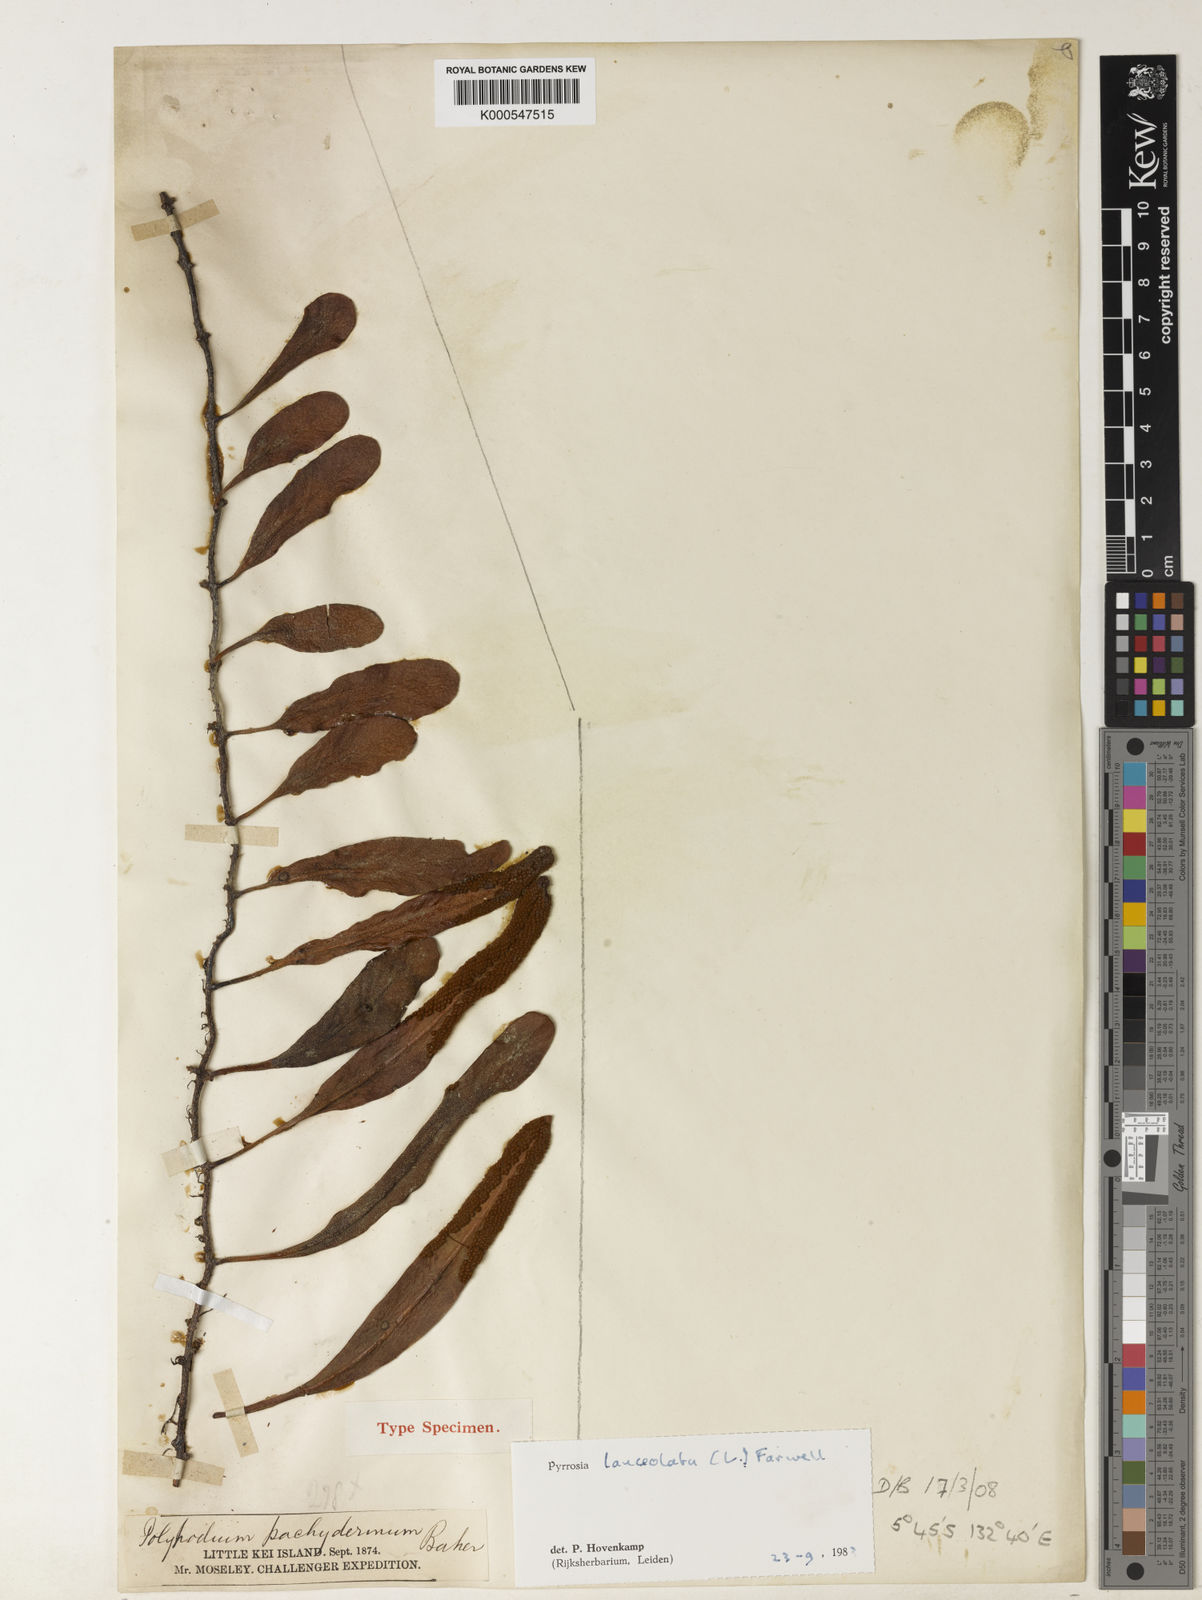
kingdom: Plantae
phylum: Tracheophyta
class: Polypodiopsida
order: Polypodiales
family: Polypodiaceae
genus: Pyrrosia
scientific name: Pyrrosia
